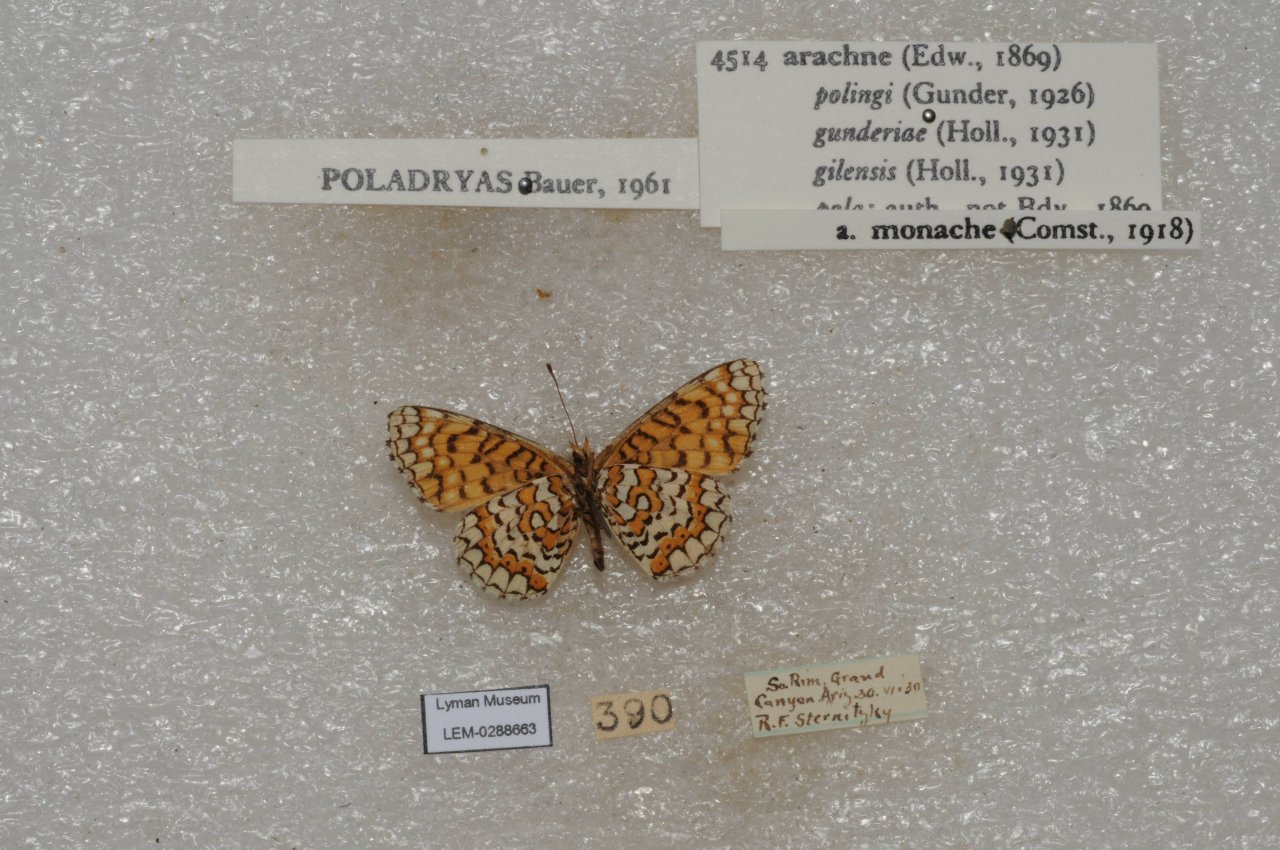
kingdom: Animalia
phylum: Arthropoda
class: Insecta
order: Lepidoptera
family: Nymphalidae
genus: Poladryas
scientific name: Poladryas minuta
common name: Arachne Checkerspot
